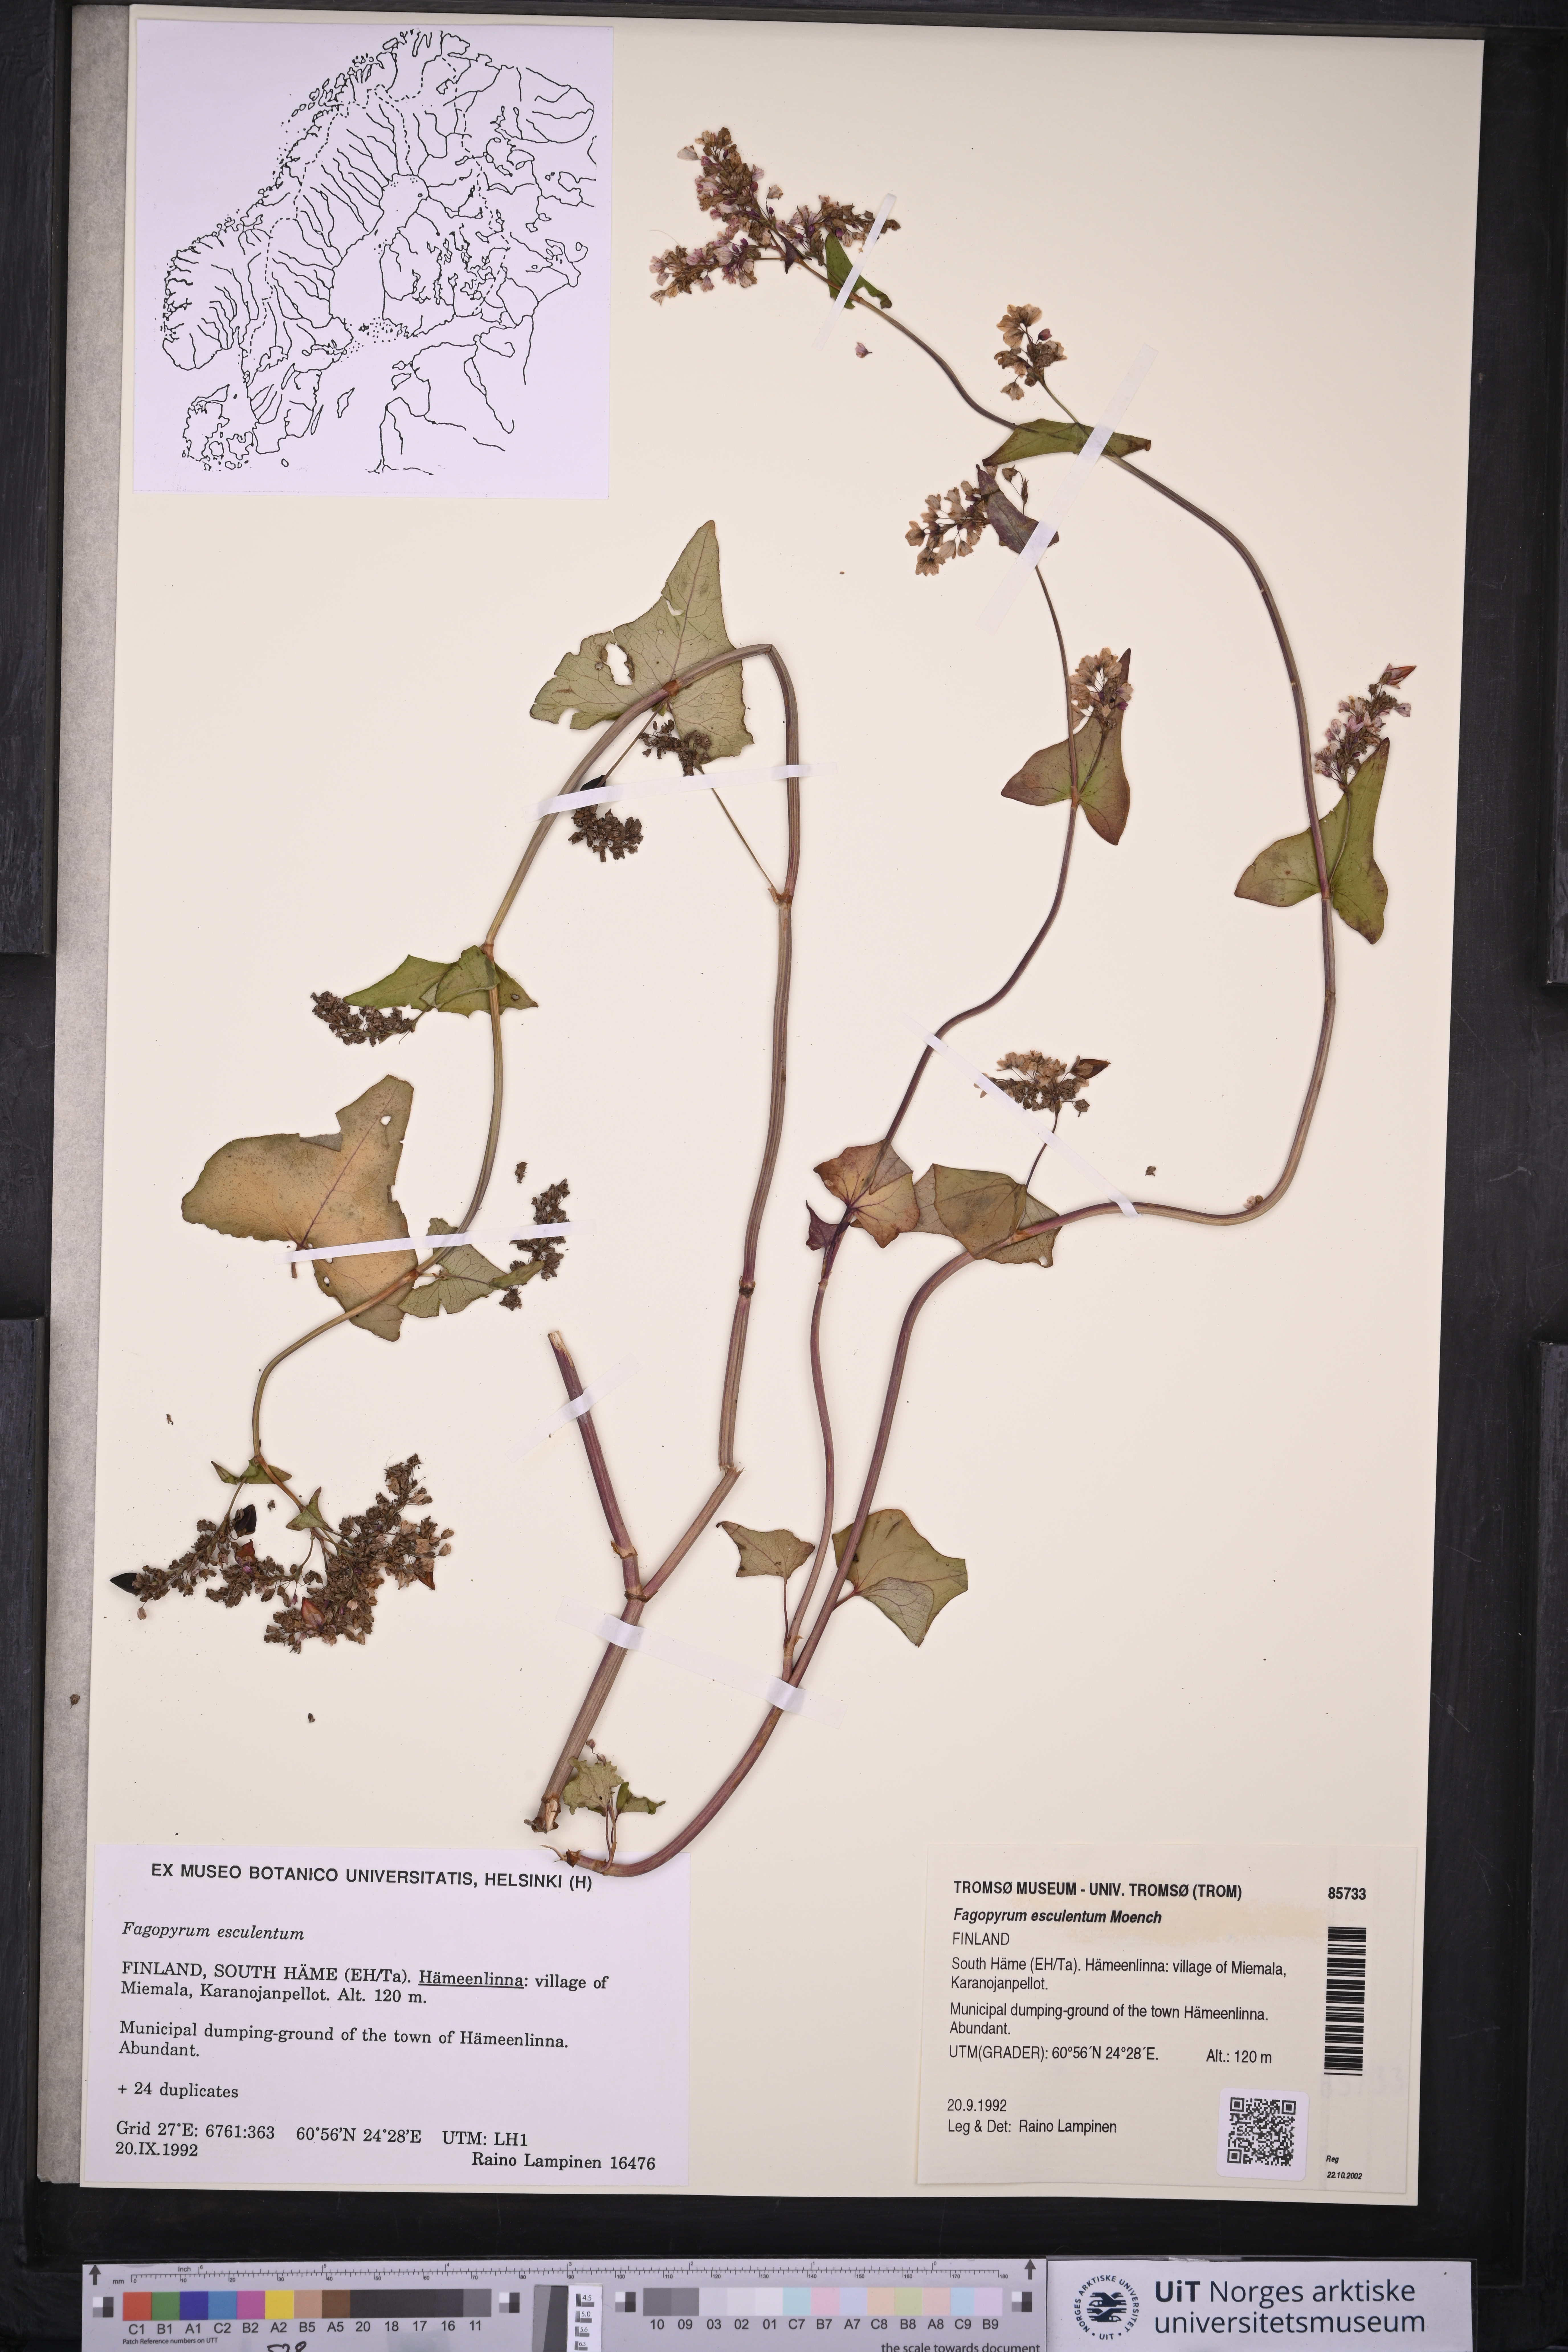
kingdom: Plantae
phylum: Tracheophyta
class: Magnoliopsida
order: Caryophyllales
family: Polygonaceae
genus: Fagopyrum
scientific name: Fagopyrum esculentum
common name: Buckwheat
